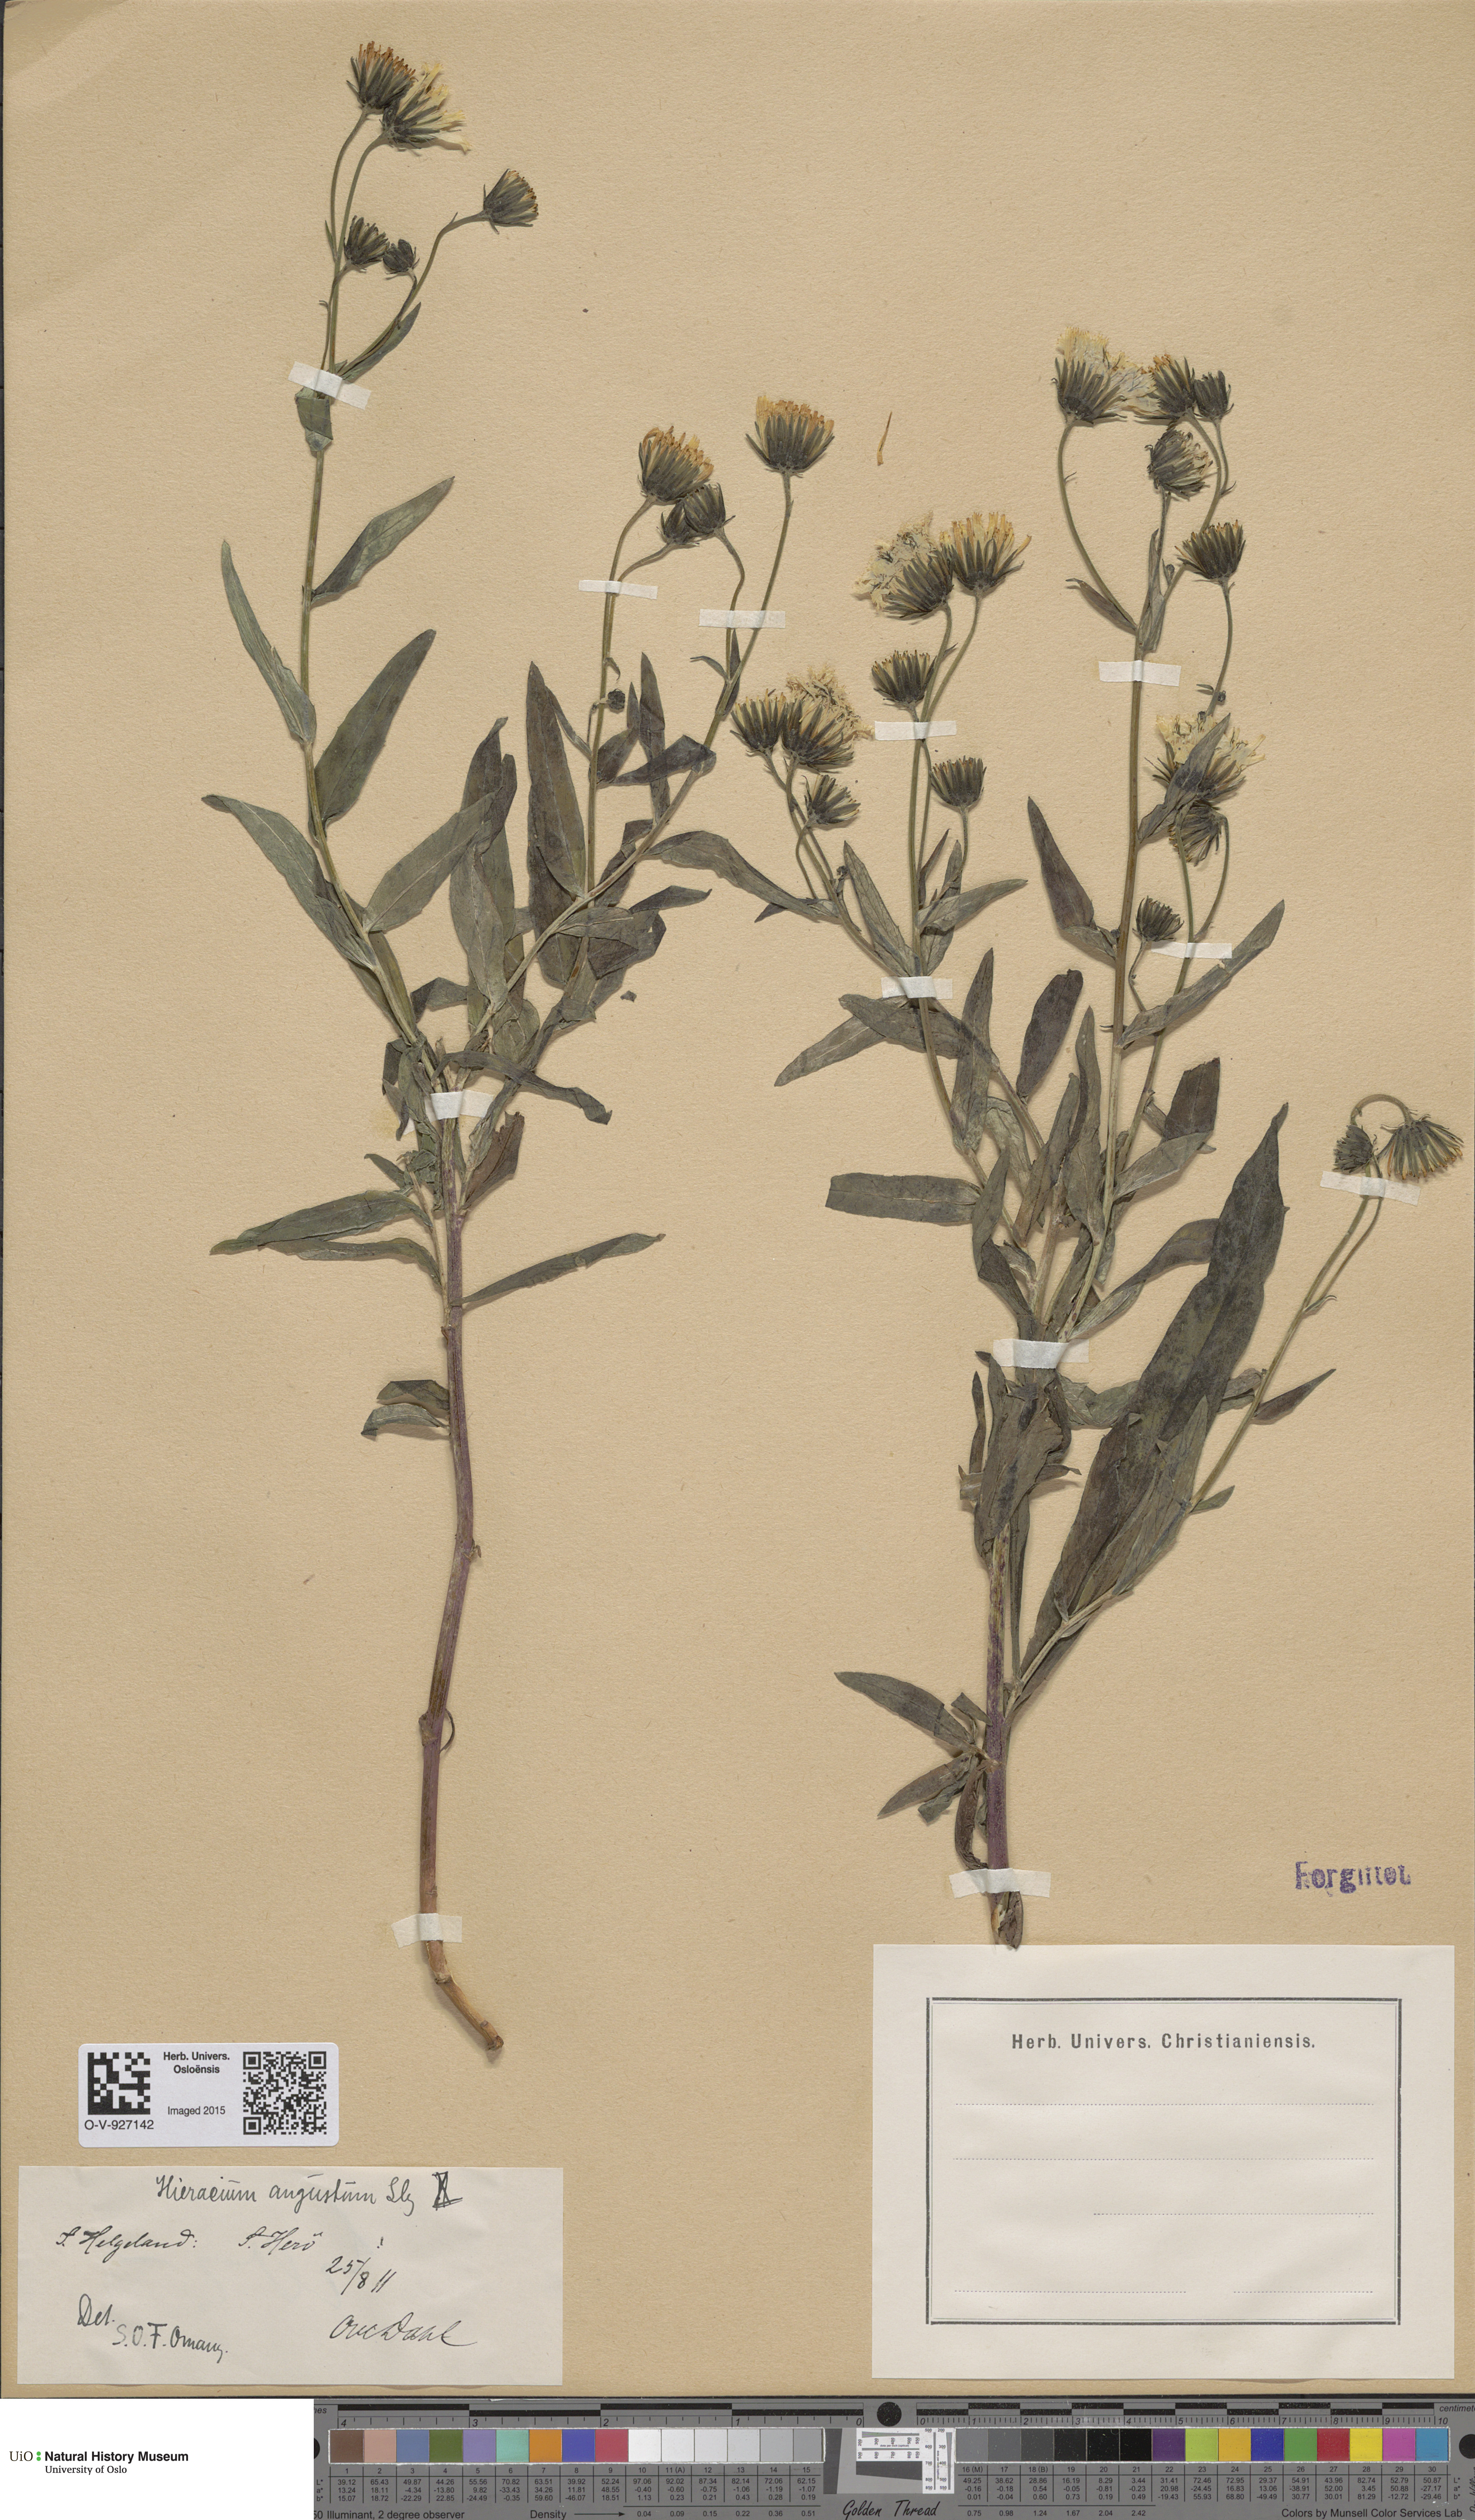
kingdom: Plantae
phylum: Tracheophyta
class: Magnoliopsida
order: Asterales
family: Asteraceae
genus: Hieracium
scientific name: Hieracium angustum
